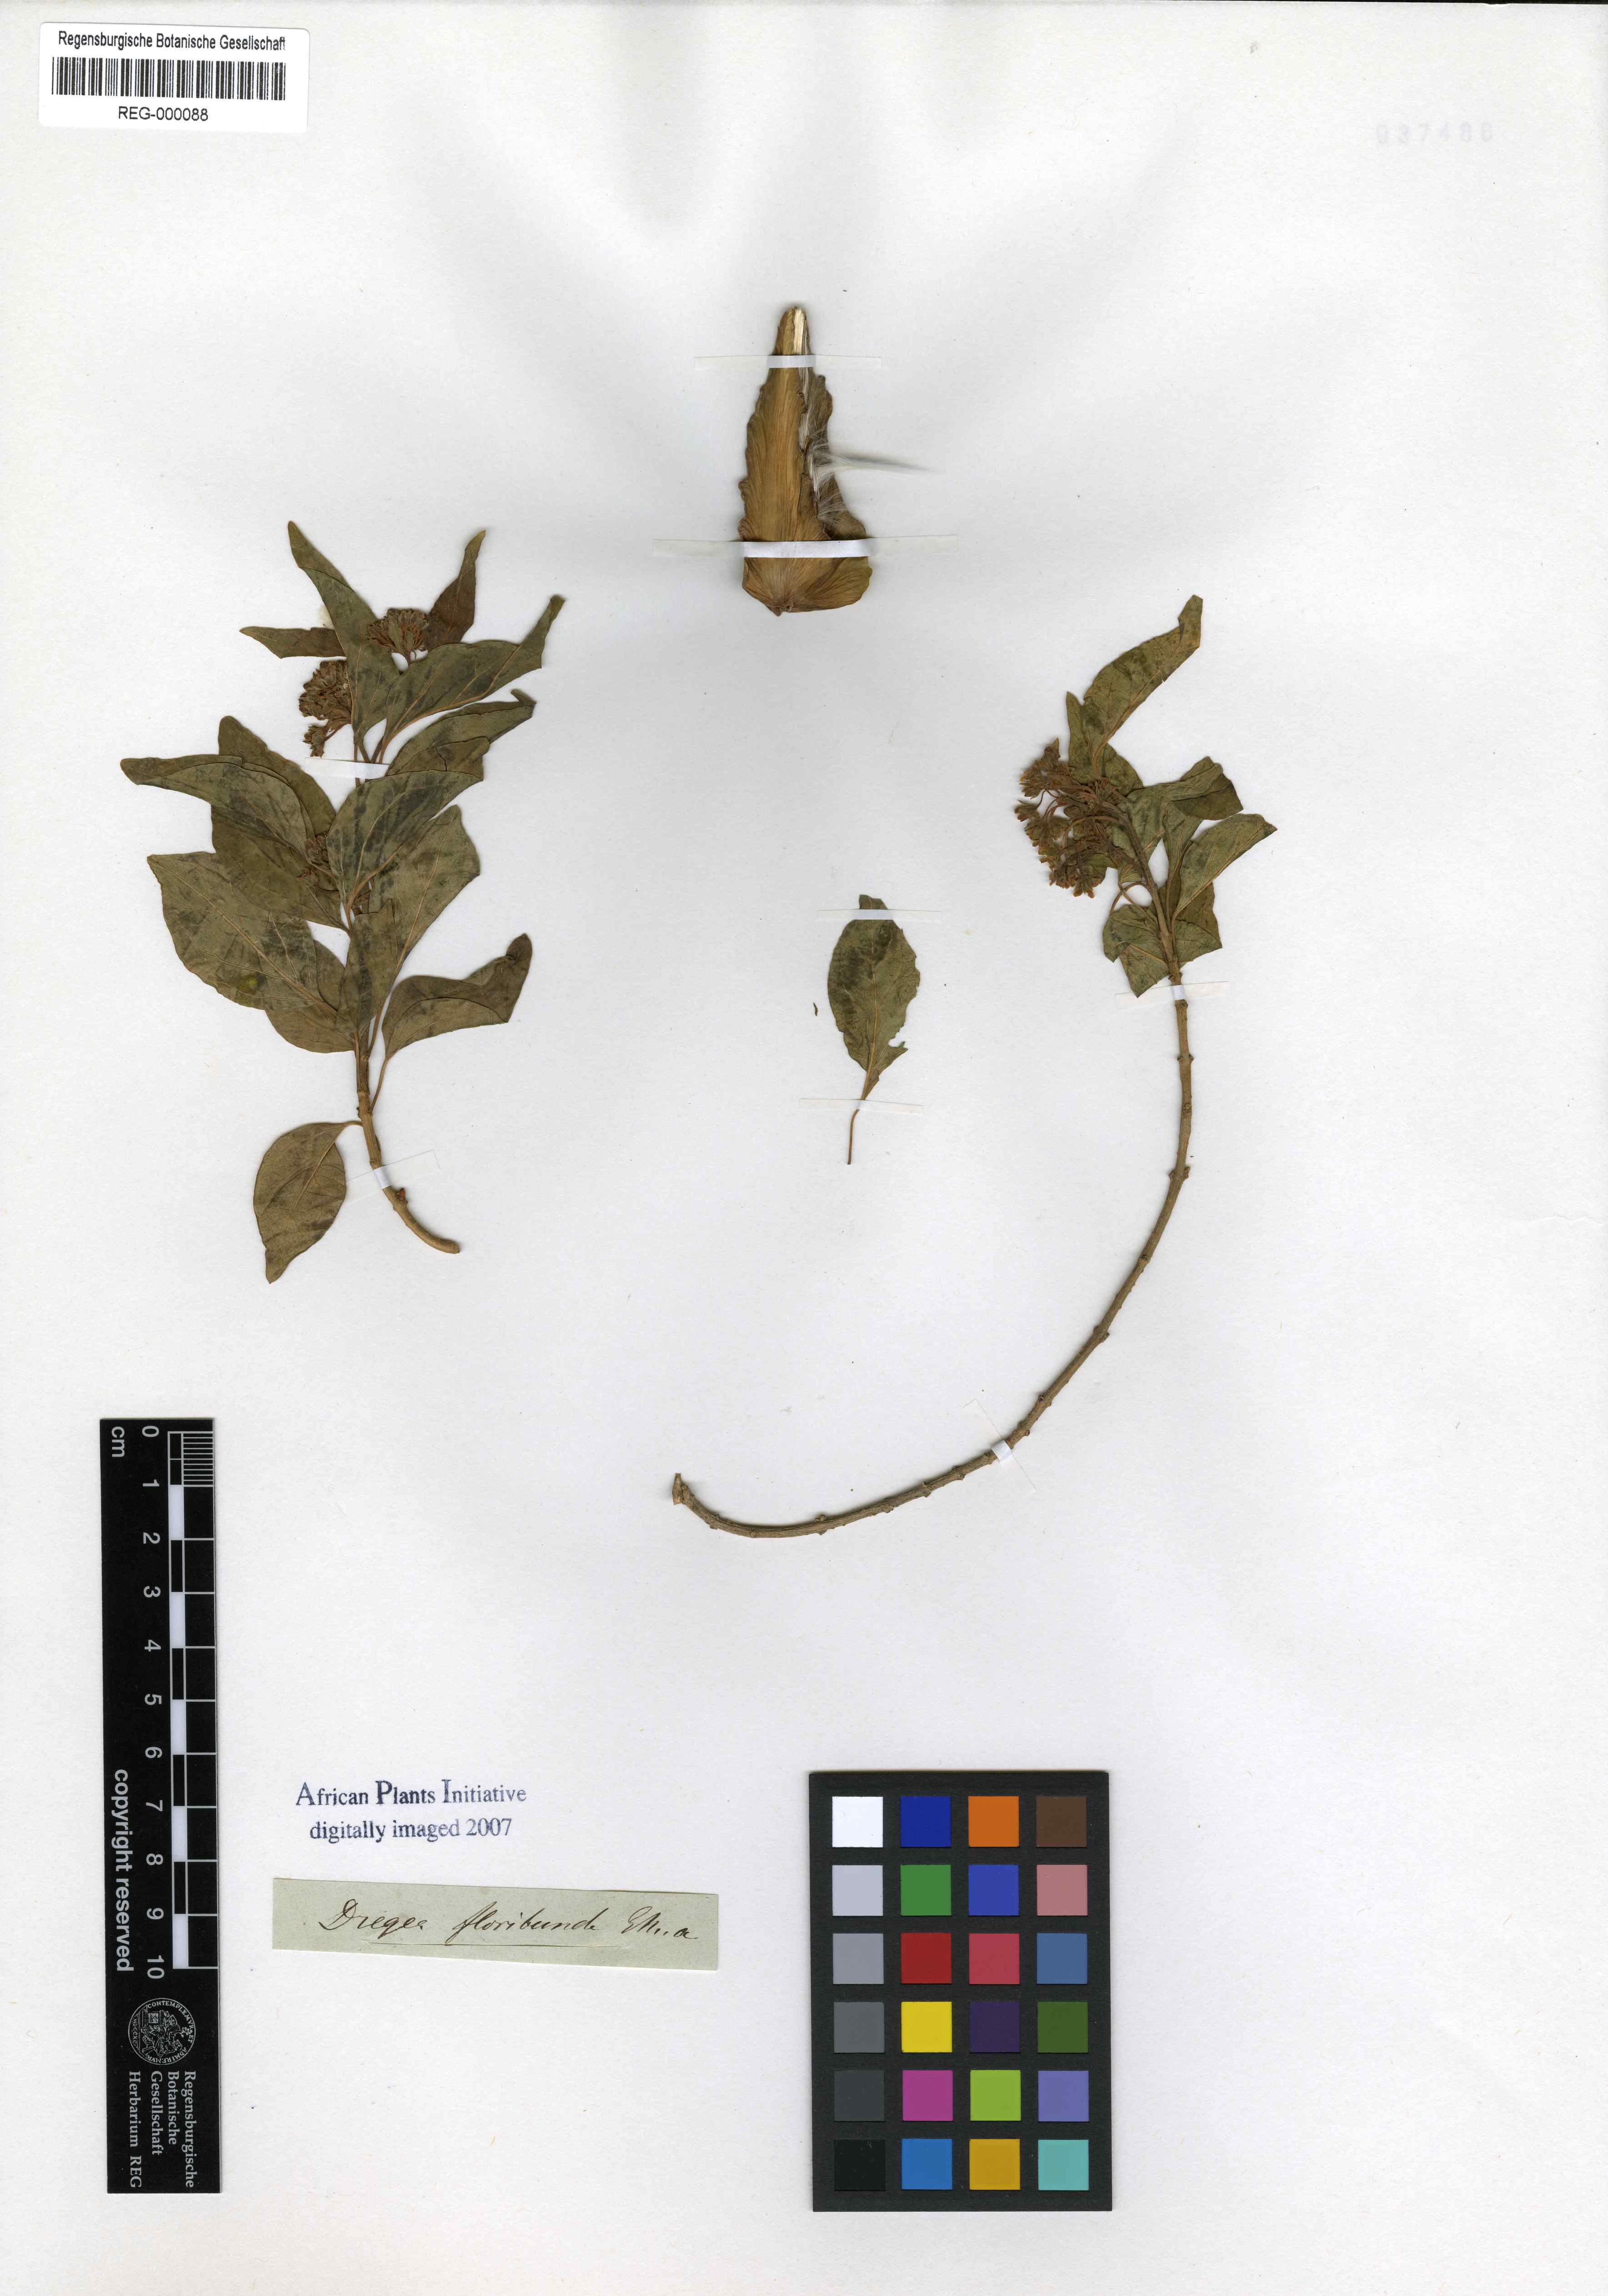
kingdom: Plantae
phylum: Tracheophyta
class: Magnoliopsida
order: Gentianales
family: Apocynaceae
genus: Stephanotis
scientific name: Stephanotis ernstmeyeri
